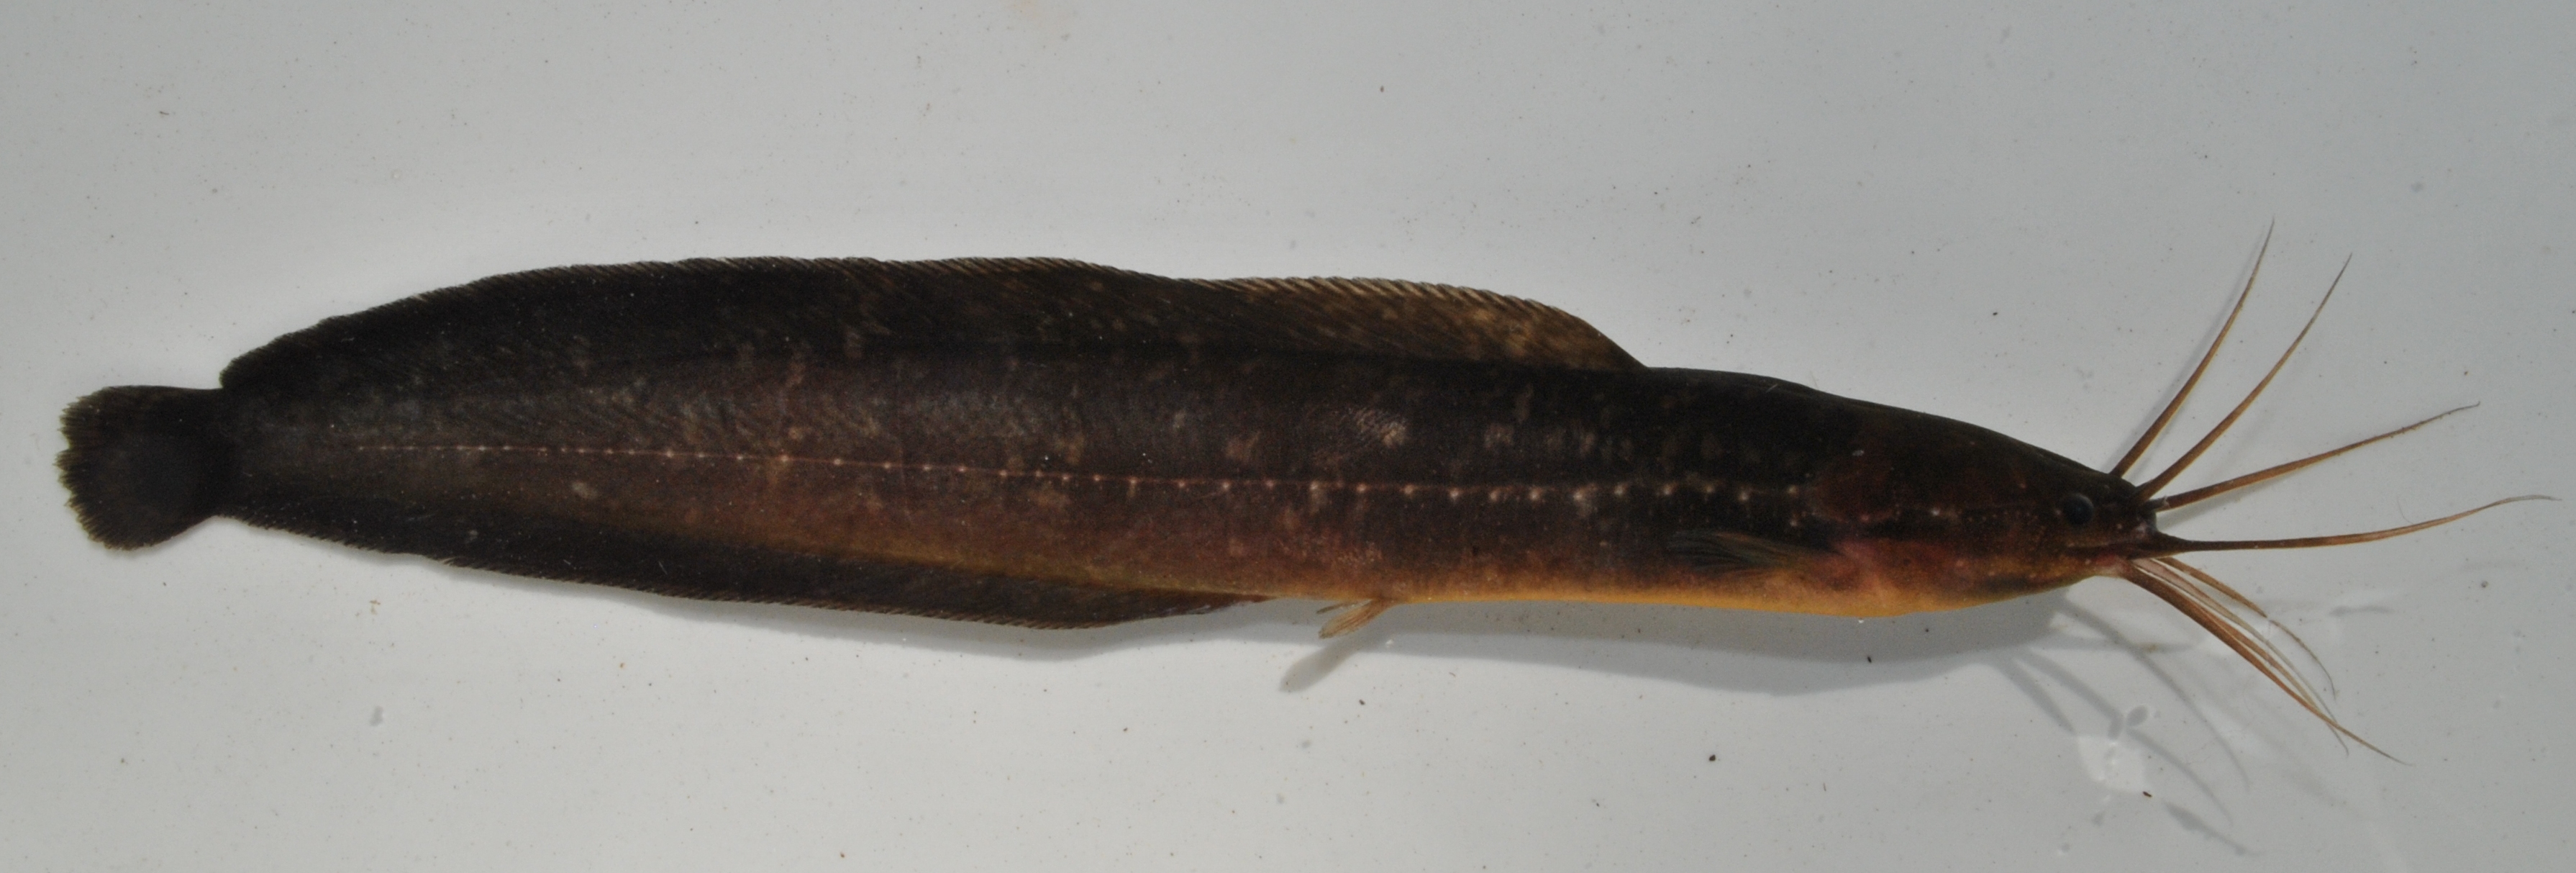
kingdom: Animalia
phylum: Chordata
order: Siluriformes
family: Clariidae
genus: Clarias
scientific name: Clarias theodorae
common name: Snake catfish
